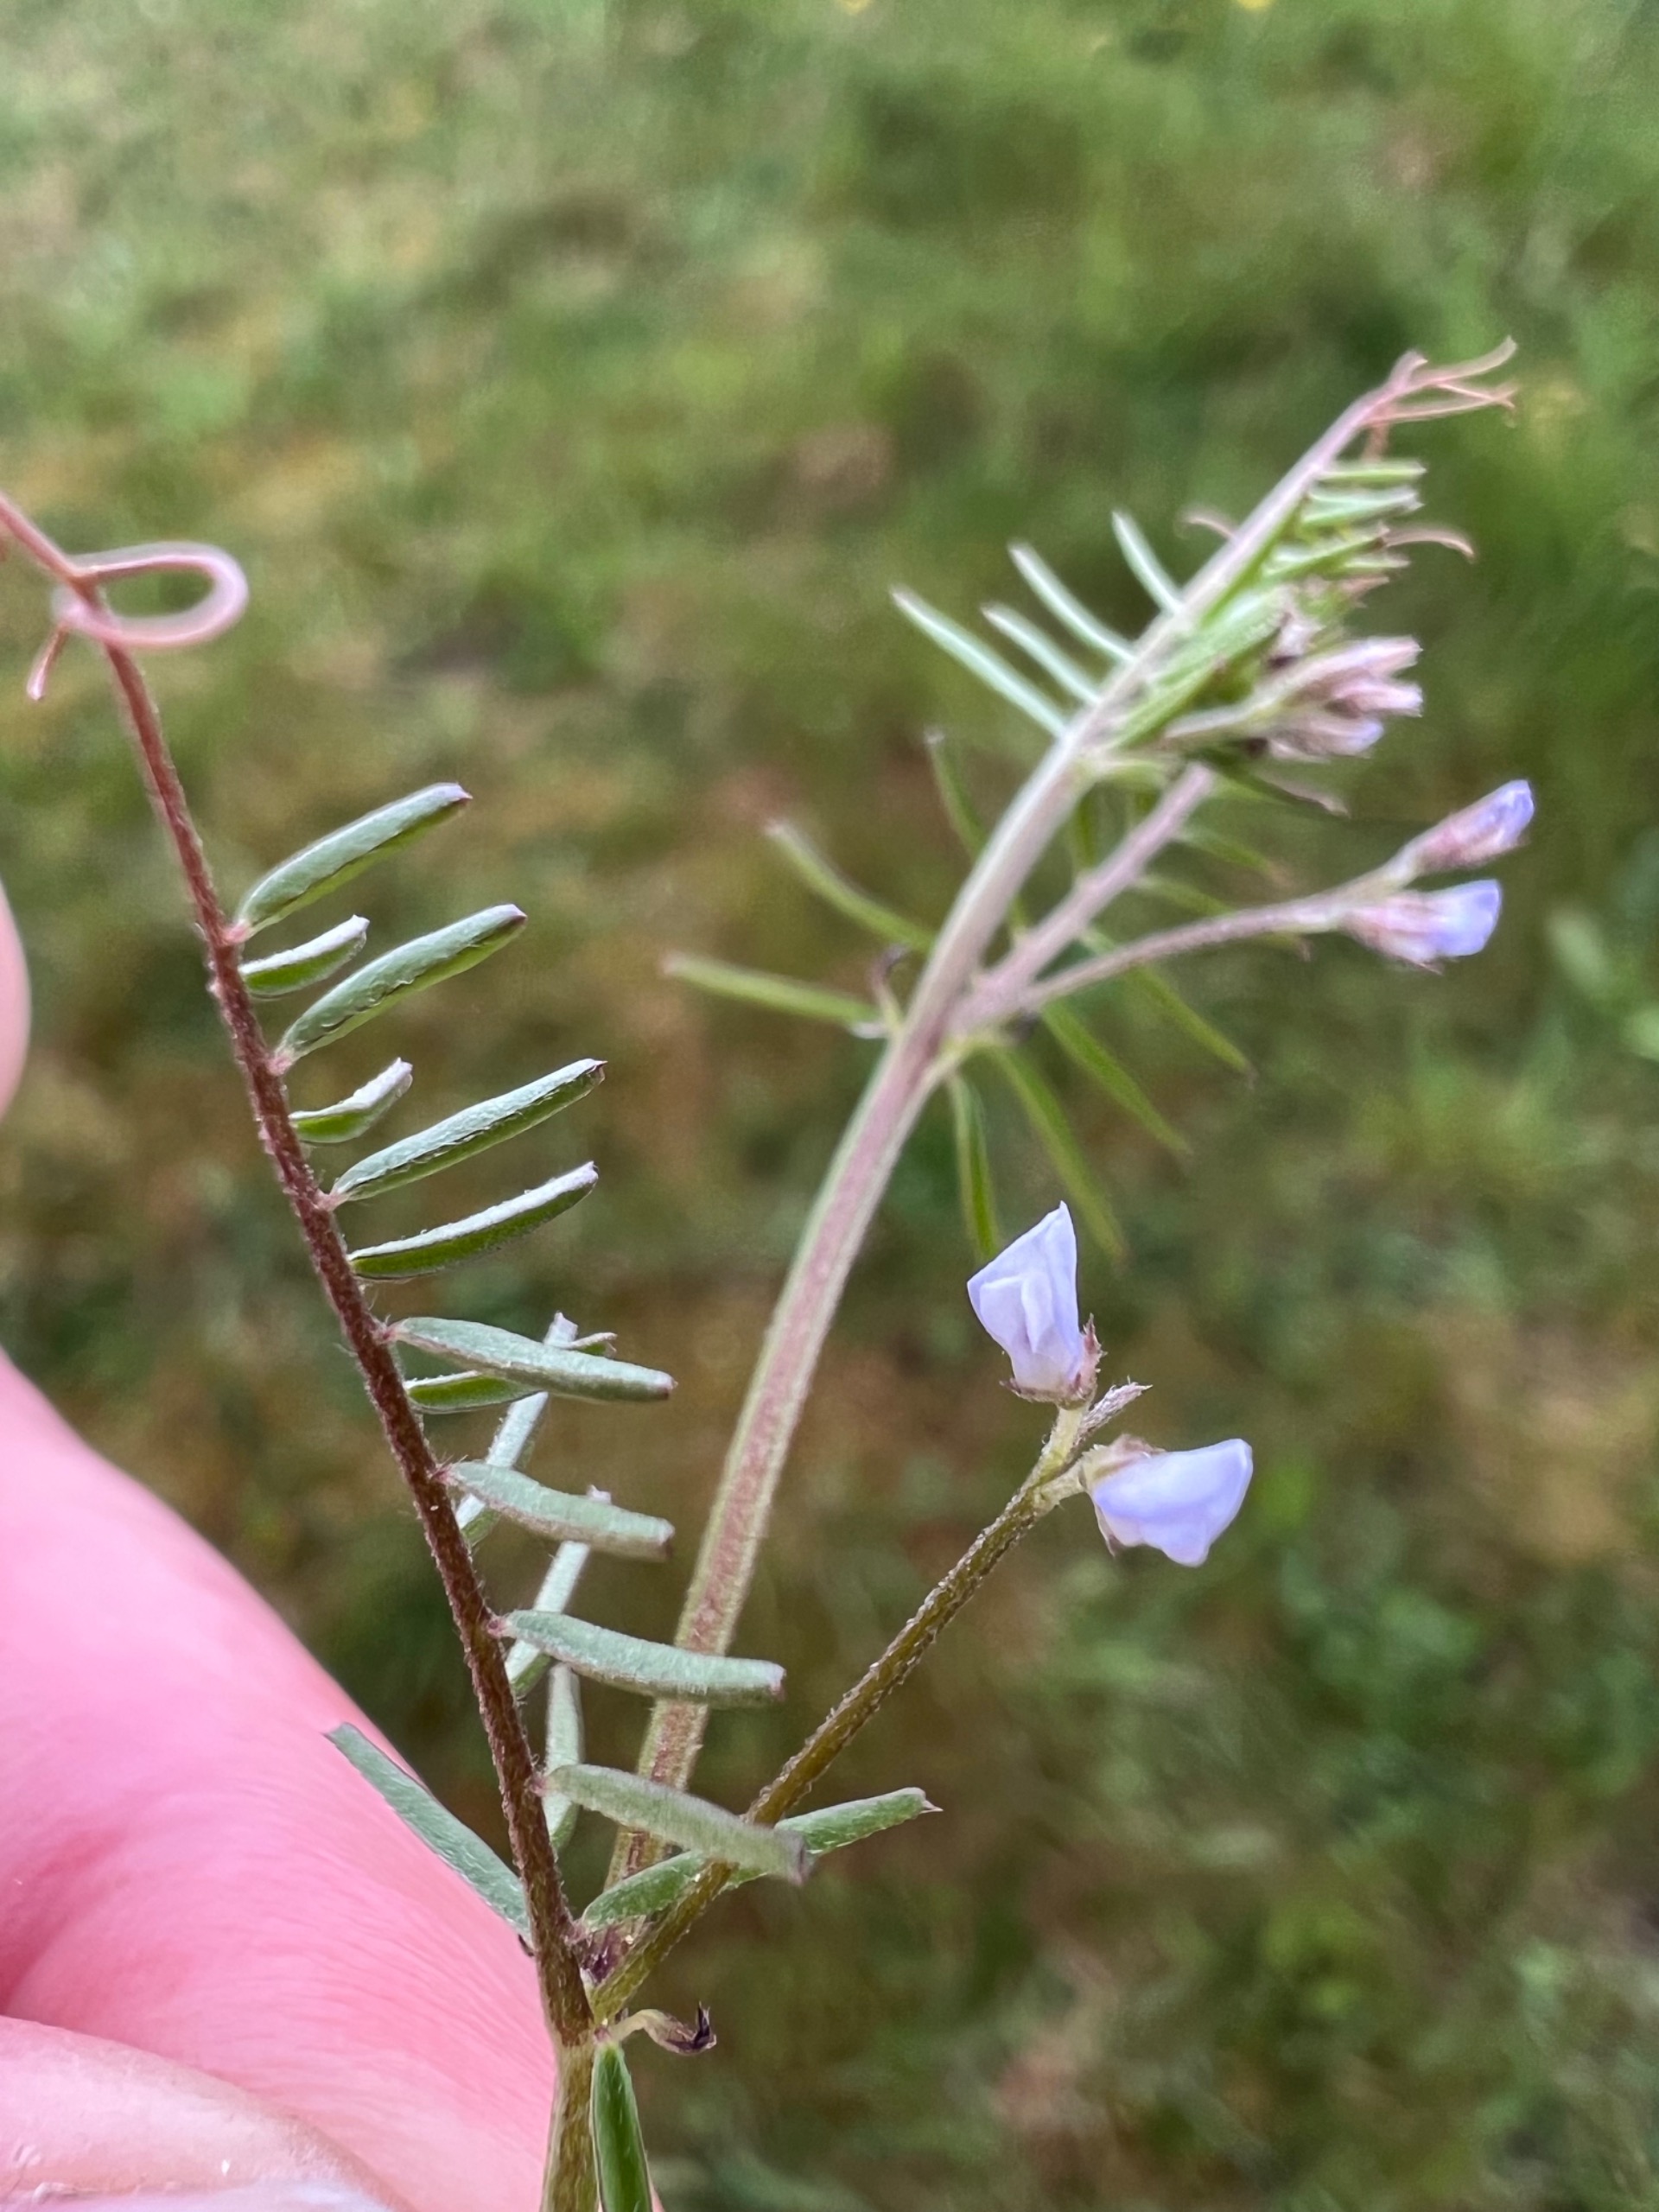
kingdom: Plantae
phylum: Tracheophyta
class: Magnoliopsida
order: Fabales
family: Fabaceae
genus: Vicia
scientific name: Vicia hirsuta
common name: Tofrøet vikke
